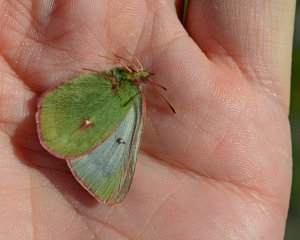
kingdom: Animalia
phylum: Arthropoda
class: Insecta
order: Lepidoptera
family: Pieridae
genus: Colias
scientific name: Colias nastes
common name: Labrador Sulphur
